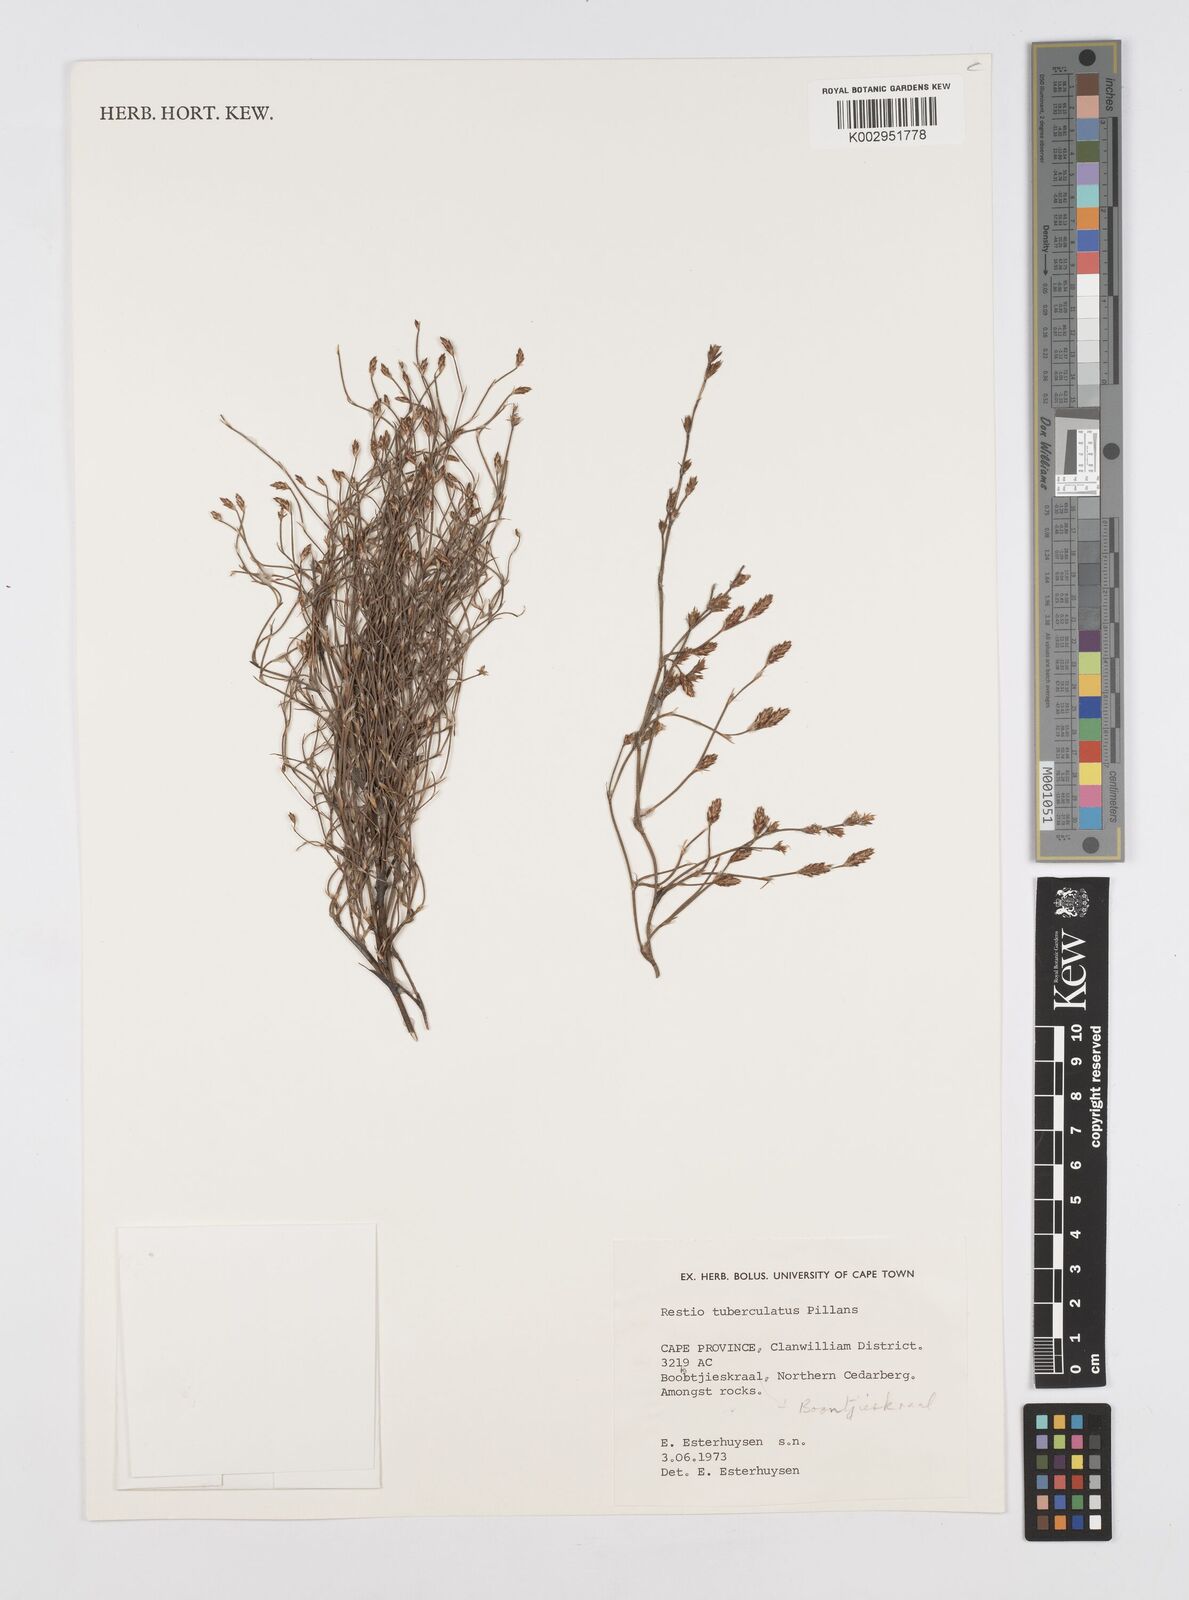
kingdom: Plantae
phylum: Tracheophyta
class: Liliopsida
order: Poales
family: Restionaceae
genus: Restio
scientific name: Restio tuberculatus
